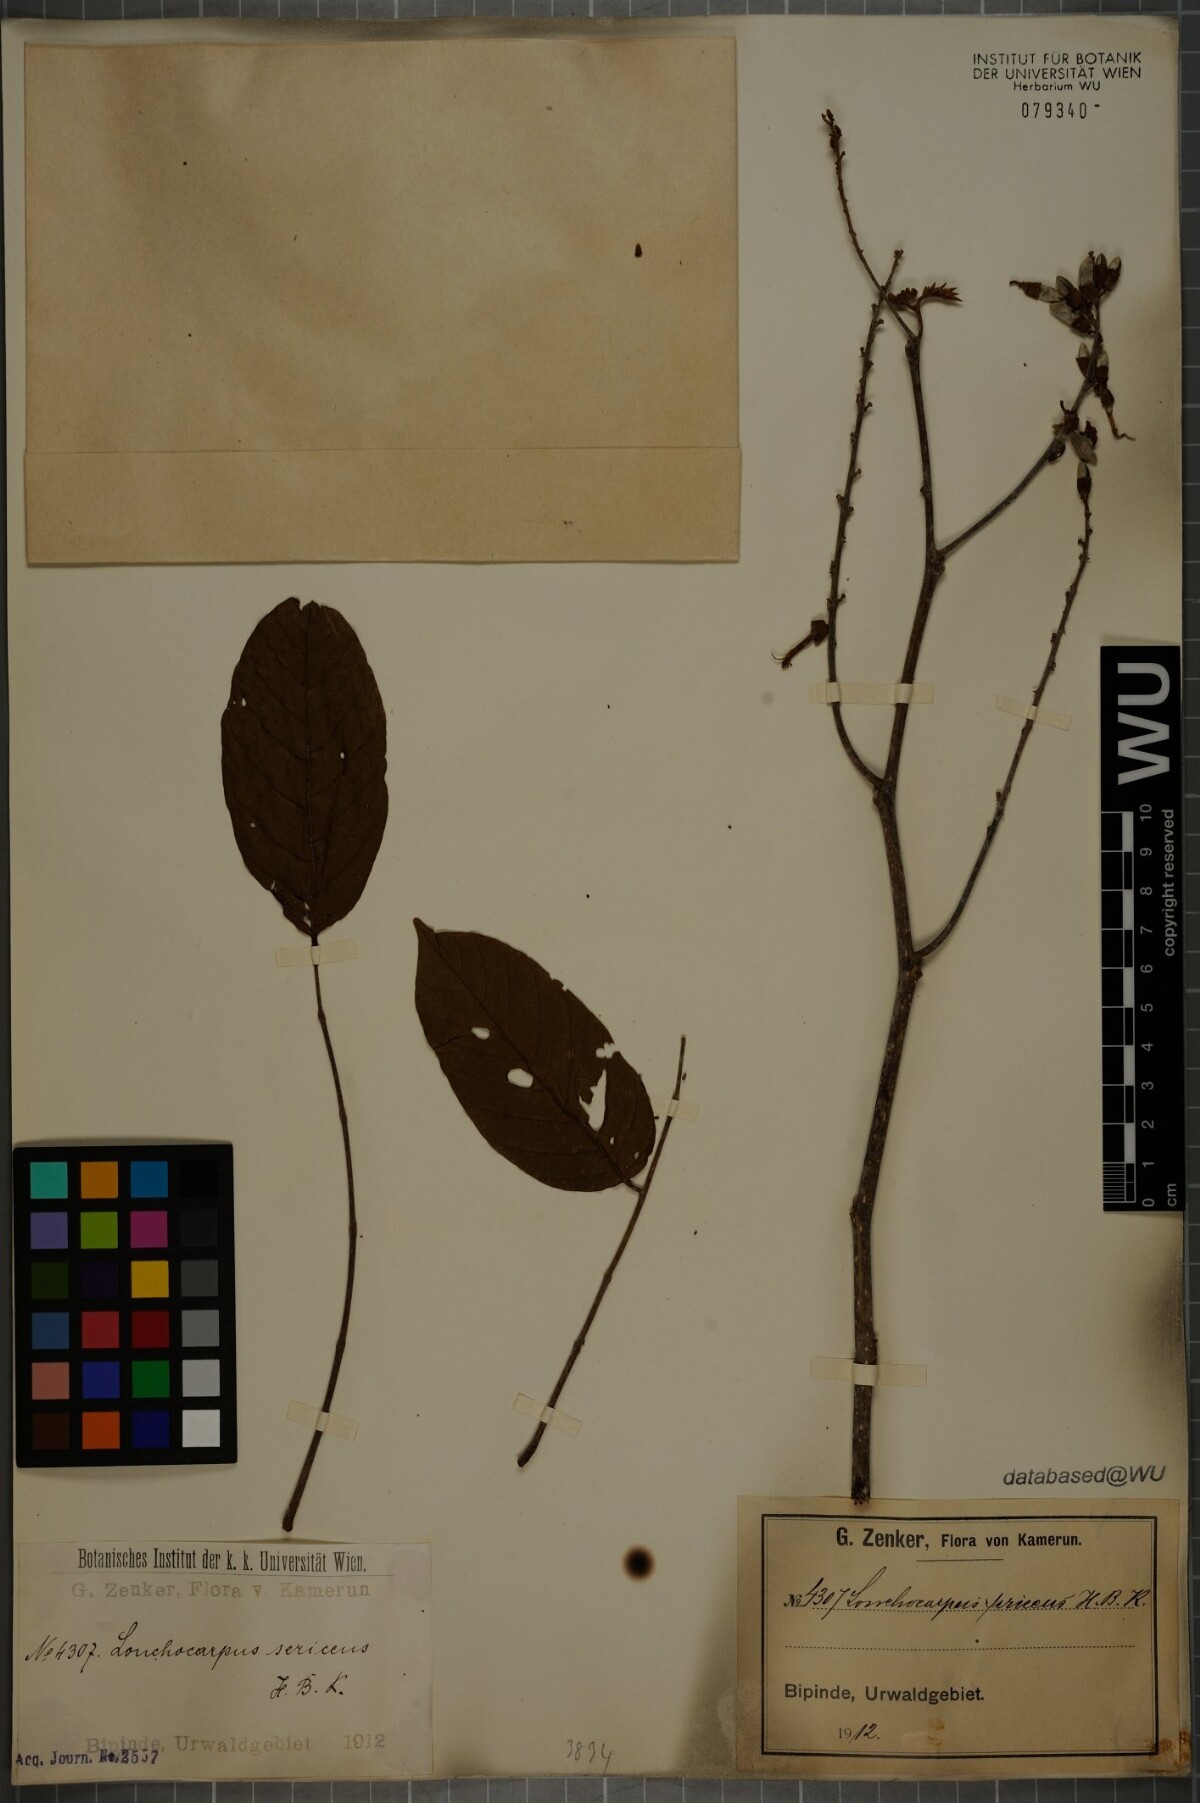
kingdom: Plantae
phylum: Tracheophyta
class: Magnoliopsida
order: Fabales
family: Fabaceae
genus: Lonchocarpus
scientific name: Lonchocarpus sericeus
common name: Savonette
